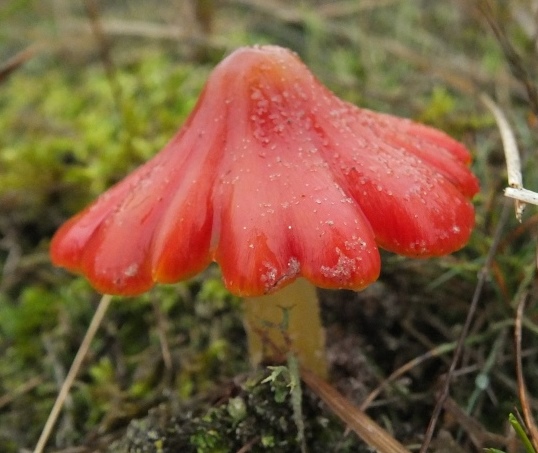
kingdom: Fungi
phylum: Basidiomycota
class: Agaricomycetes
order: Agaricales
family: Hygrophoraceae
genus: Hygrocybe
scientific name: Hygrocybe conicoides
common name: klit-vokshat
